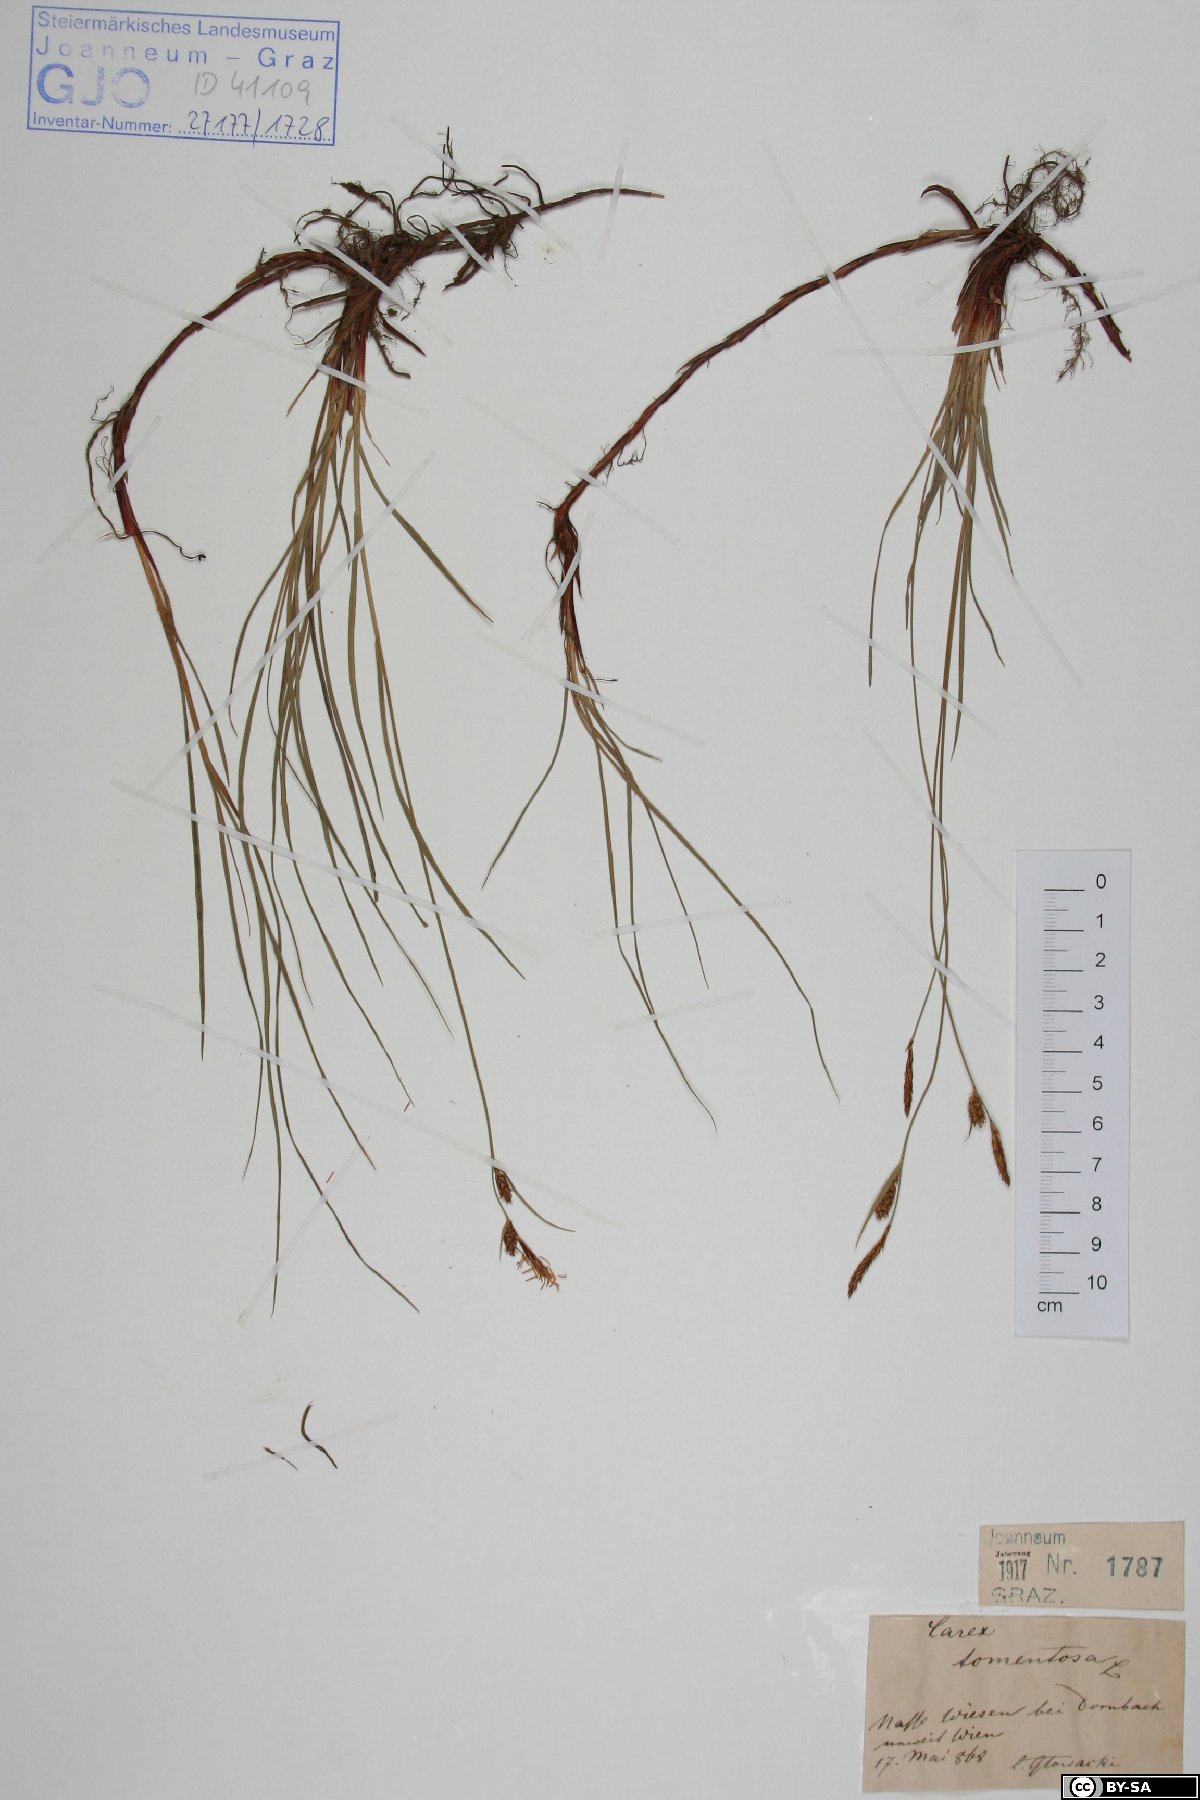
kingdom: Plantae
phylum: Tracheophyta
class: Liliopsida
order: Poales
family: Cyperaceae
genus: Carex
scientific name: Carex tomentosa
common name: Downy-fruited sedge
